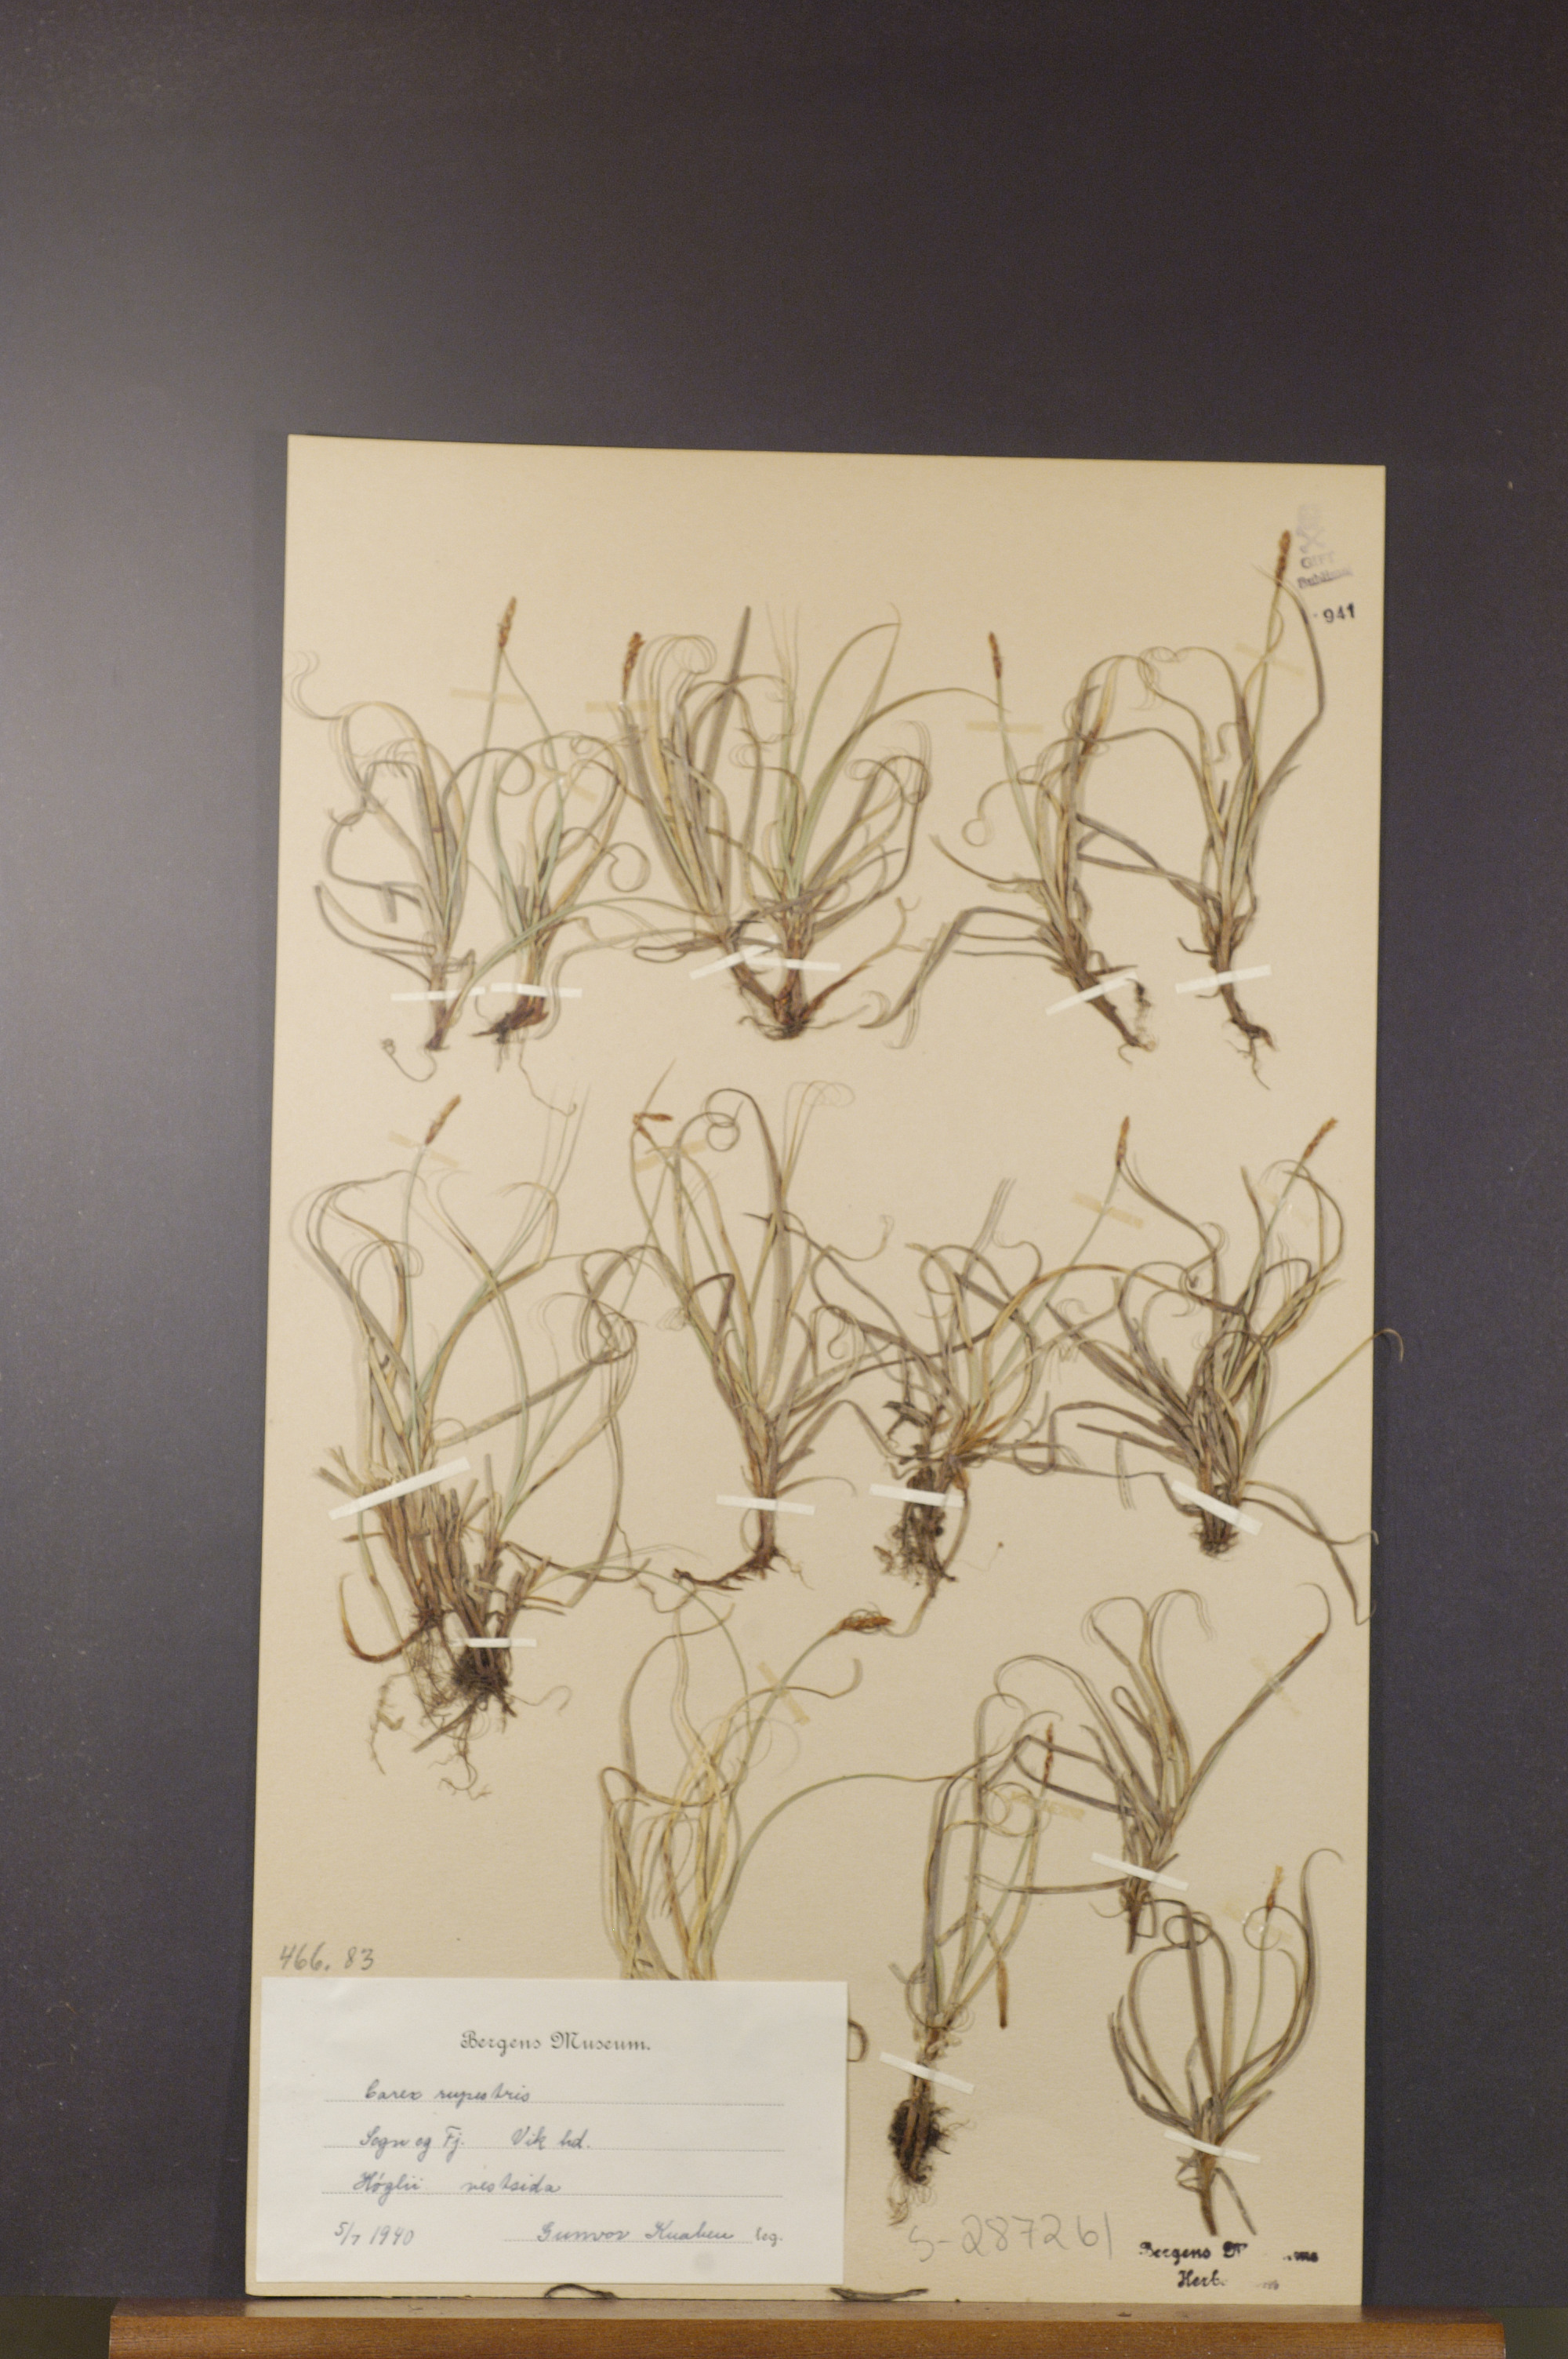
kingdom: Plantae
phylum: Tracheophyta
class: Liliopsida
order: Poales
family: Cyperaceae
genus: Carex
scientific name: Carex rupestris
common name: Rock sedge
